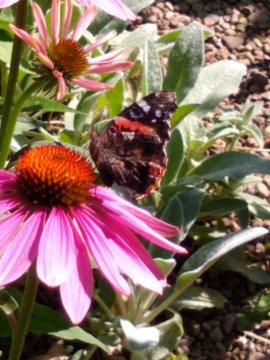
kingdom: Animalia
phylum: Arthropoda
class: Insecta
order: Lepidoptera
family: Nymphalidae
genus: Vanessa
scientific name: Vanessa atalanta
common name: Red Admiral
